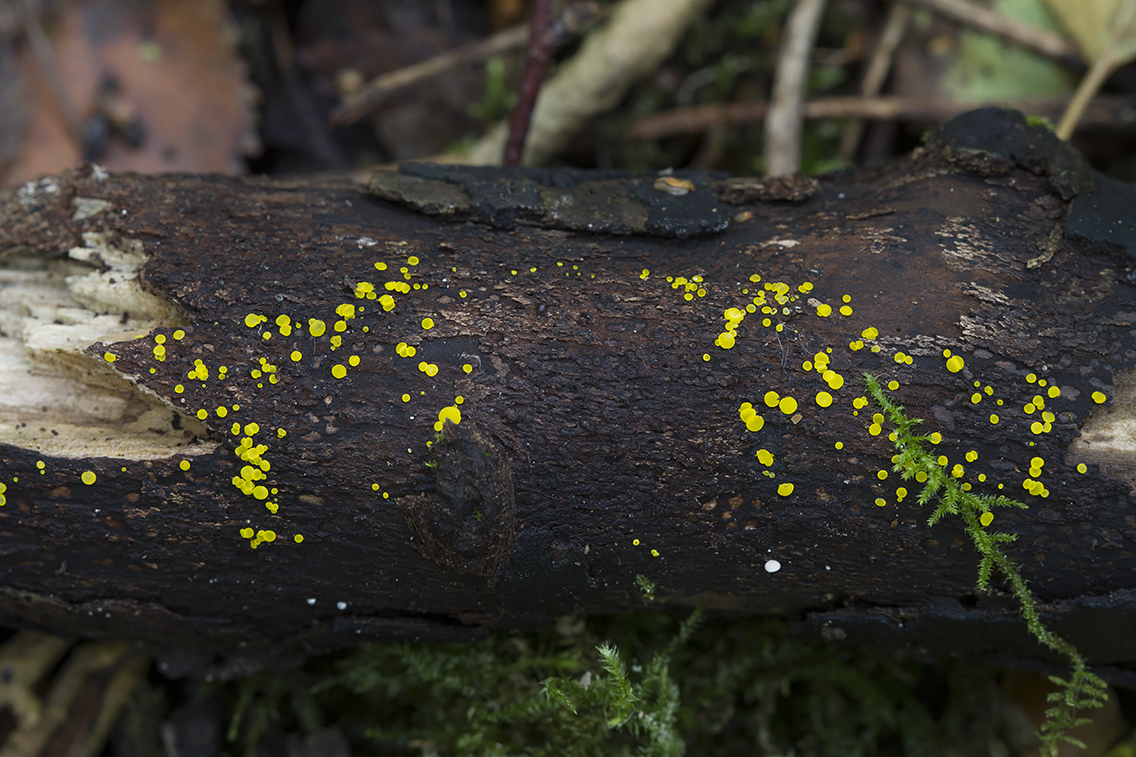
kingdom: Fungi
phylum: Ascomycota
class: Leotiomycetes
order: Helotiales
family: Pezizellaceae
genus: Calycina
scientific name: Calycina claroflava
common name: snyltende gulskive
